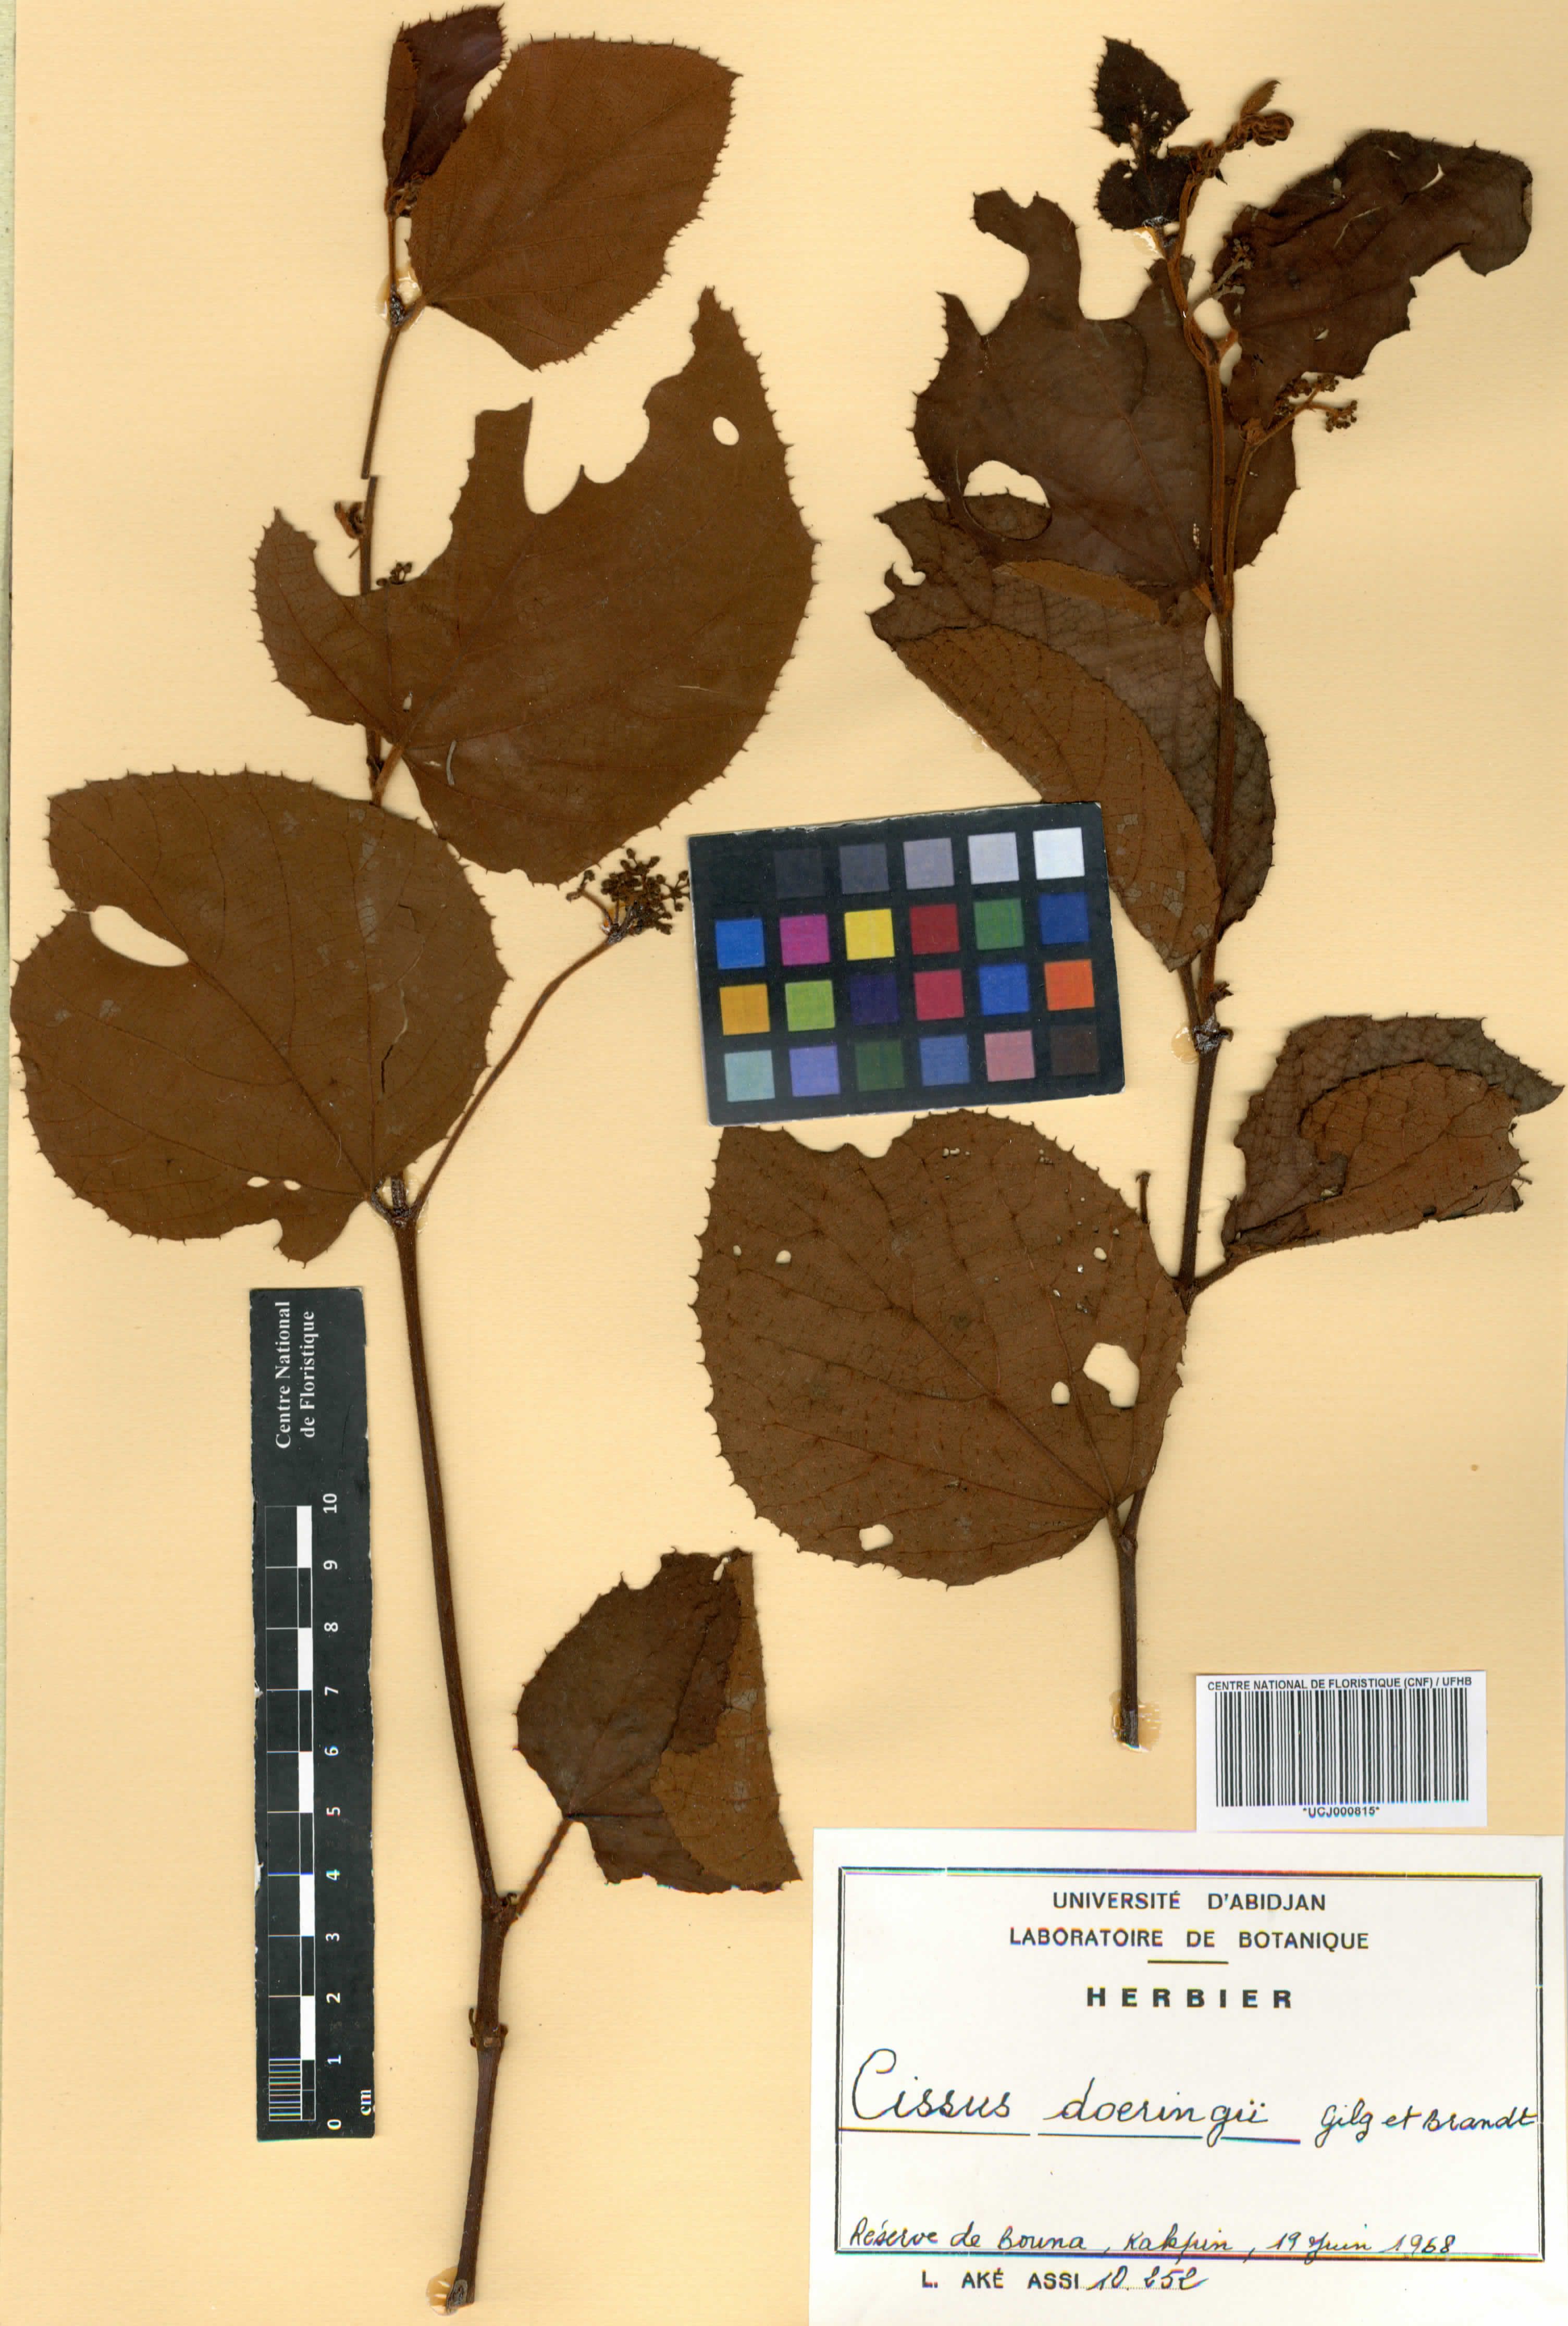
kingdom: Plantae
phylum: Tracheophyta
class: Magnoliopsida
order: Vitales
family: Vitaceae
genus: Cyphostemma
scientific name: Cyphostemma flavicans
